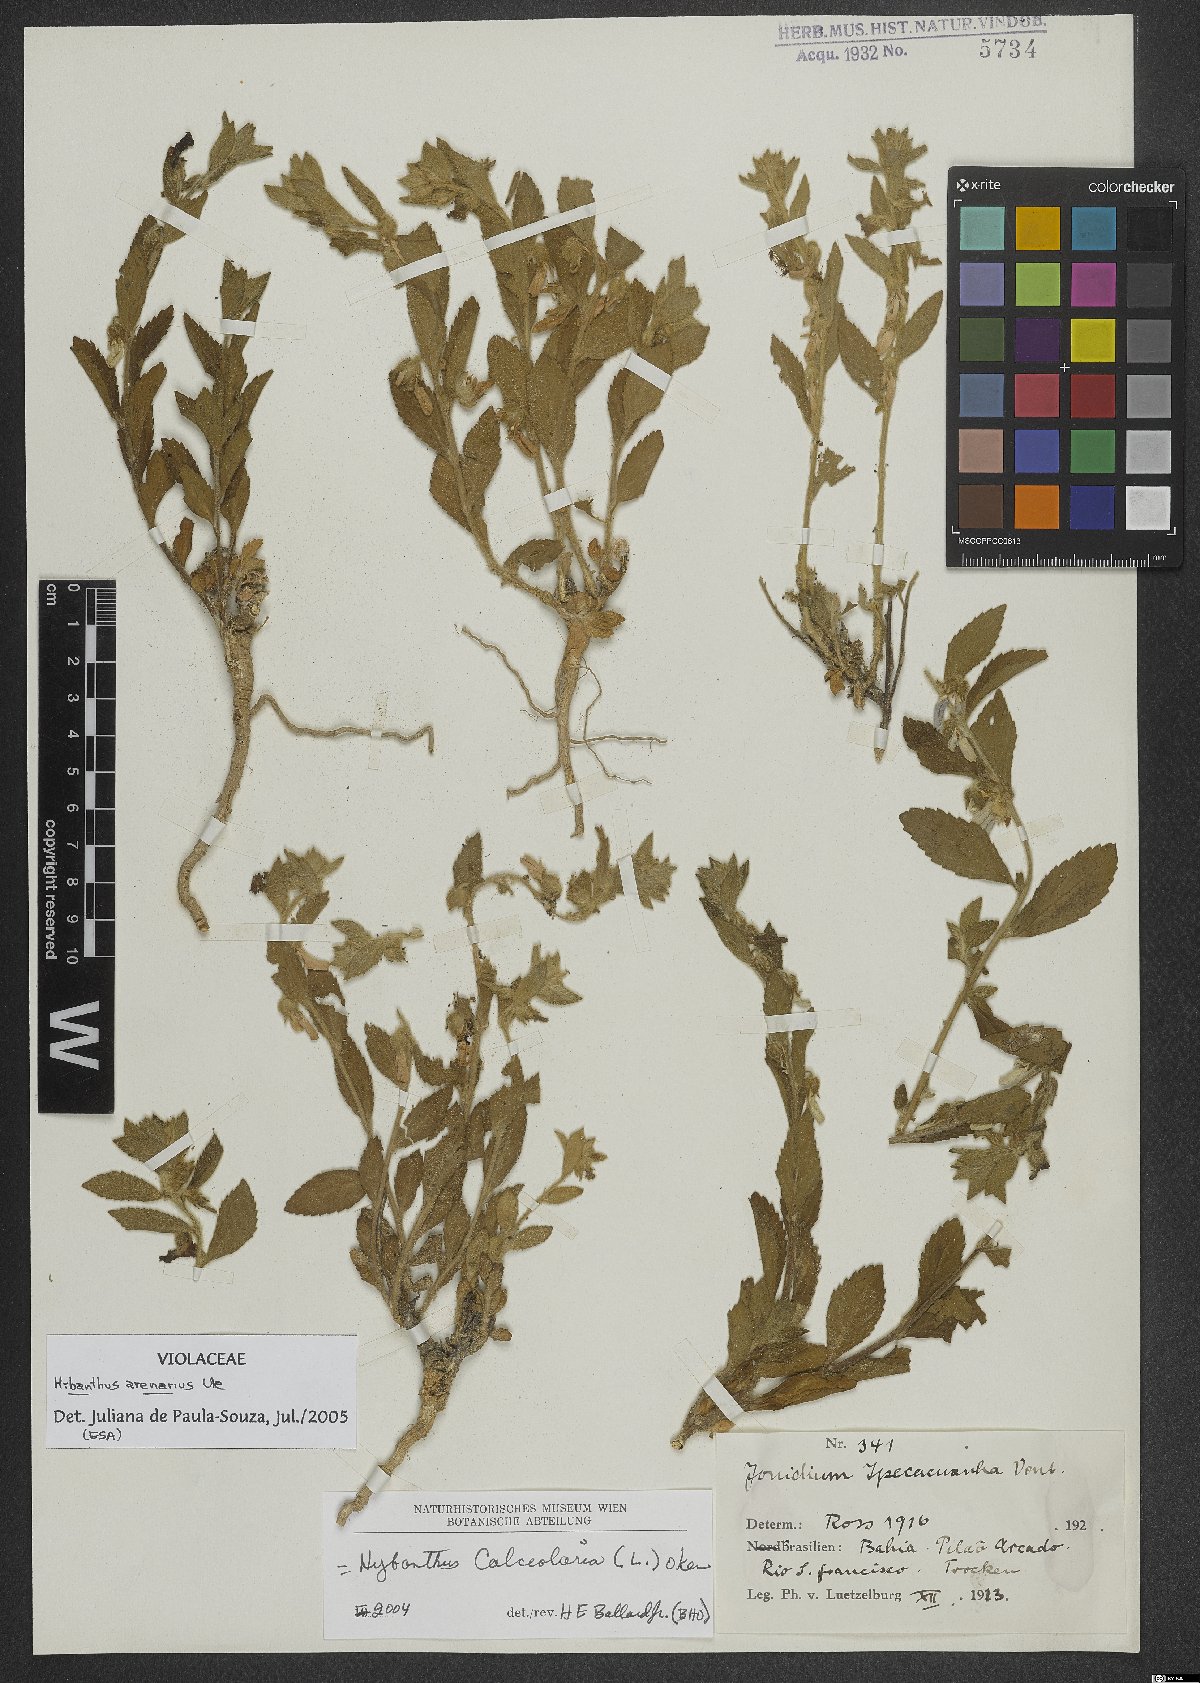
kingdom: Plantae
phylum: Tracheophyta
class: Magnoliopsida
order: Malpighiales
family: Violaceae
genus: Pombalia
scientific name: Pombalia arenaria
